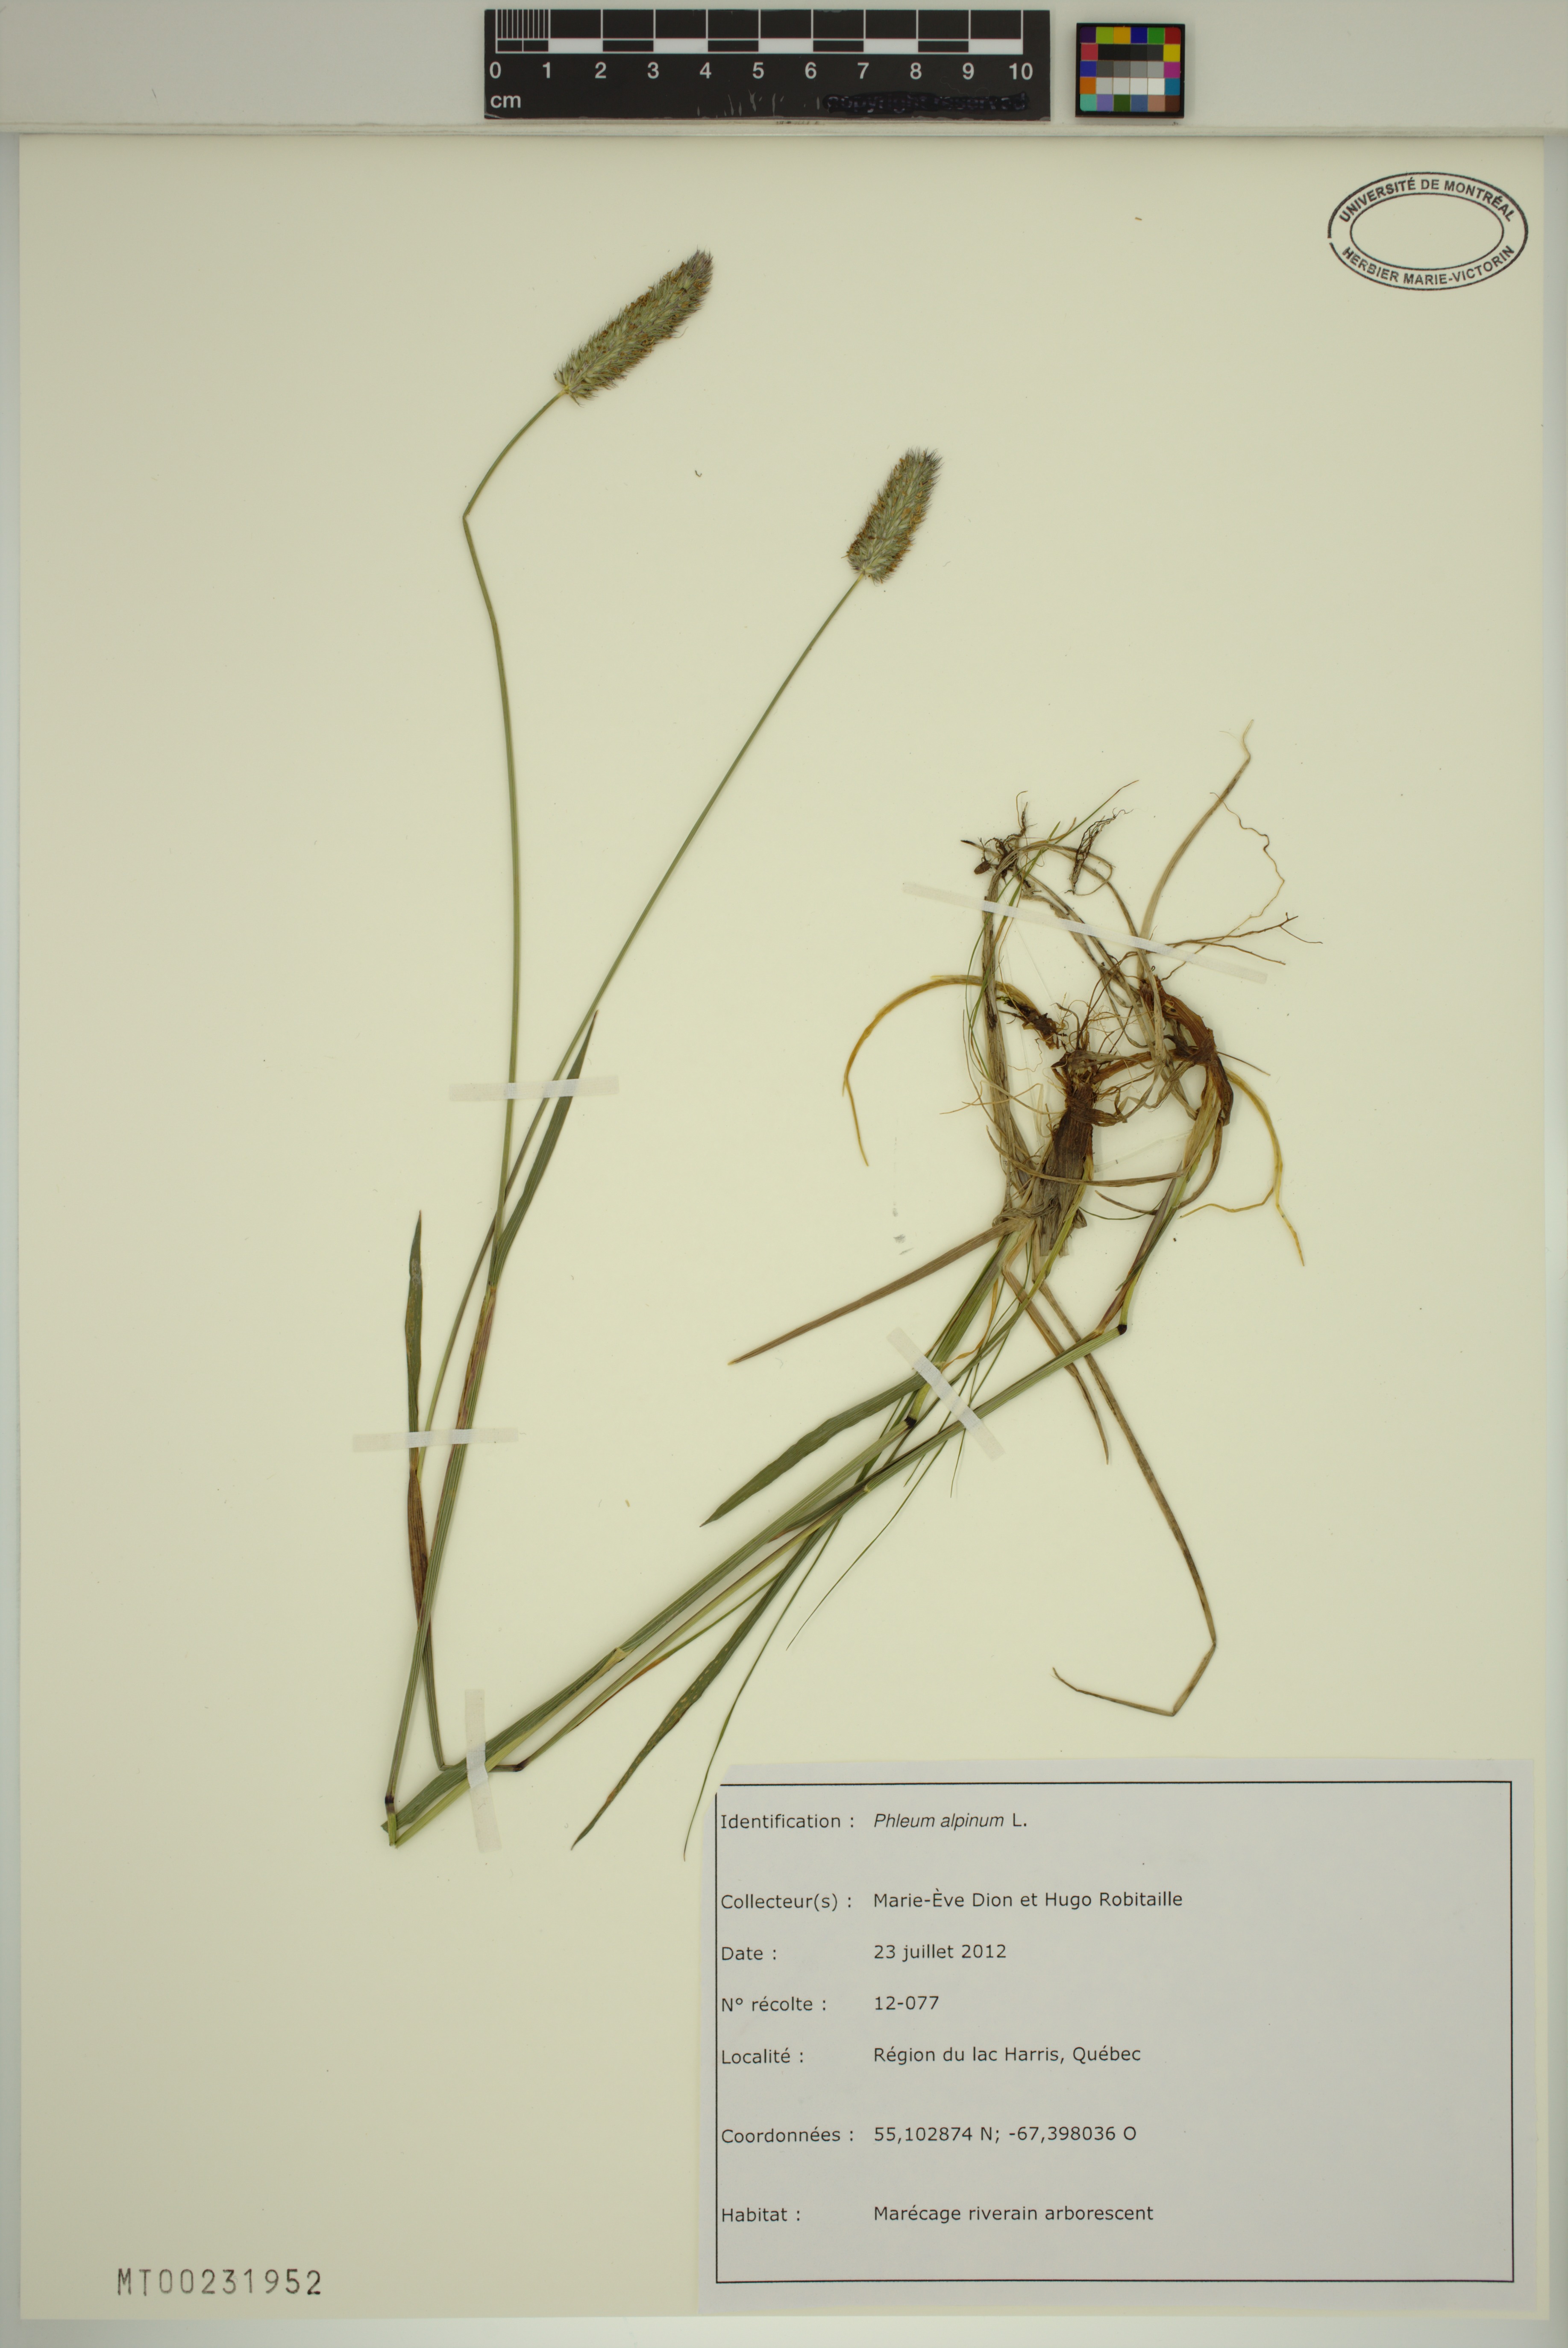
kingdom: Plantae
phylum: Tracheophyta
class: Liliopsida
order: Poales
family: Poaceae
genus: Phleum
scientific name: Phleum alpinum
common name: Alpine cat's-tail
